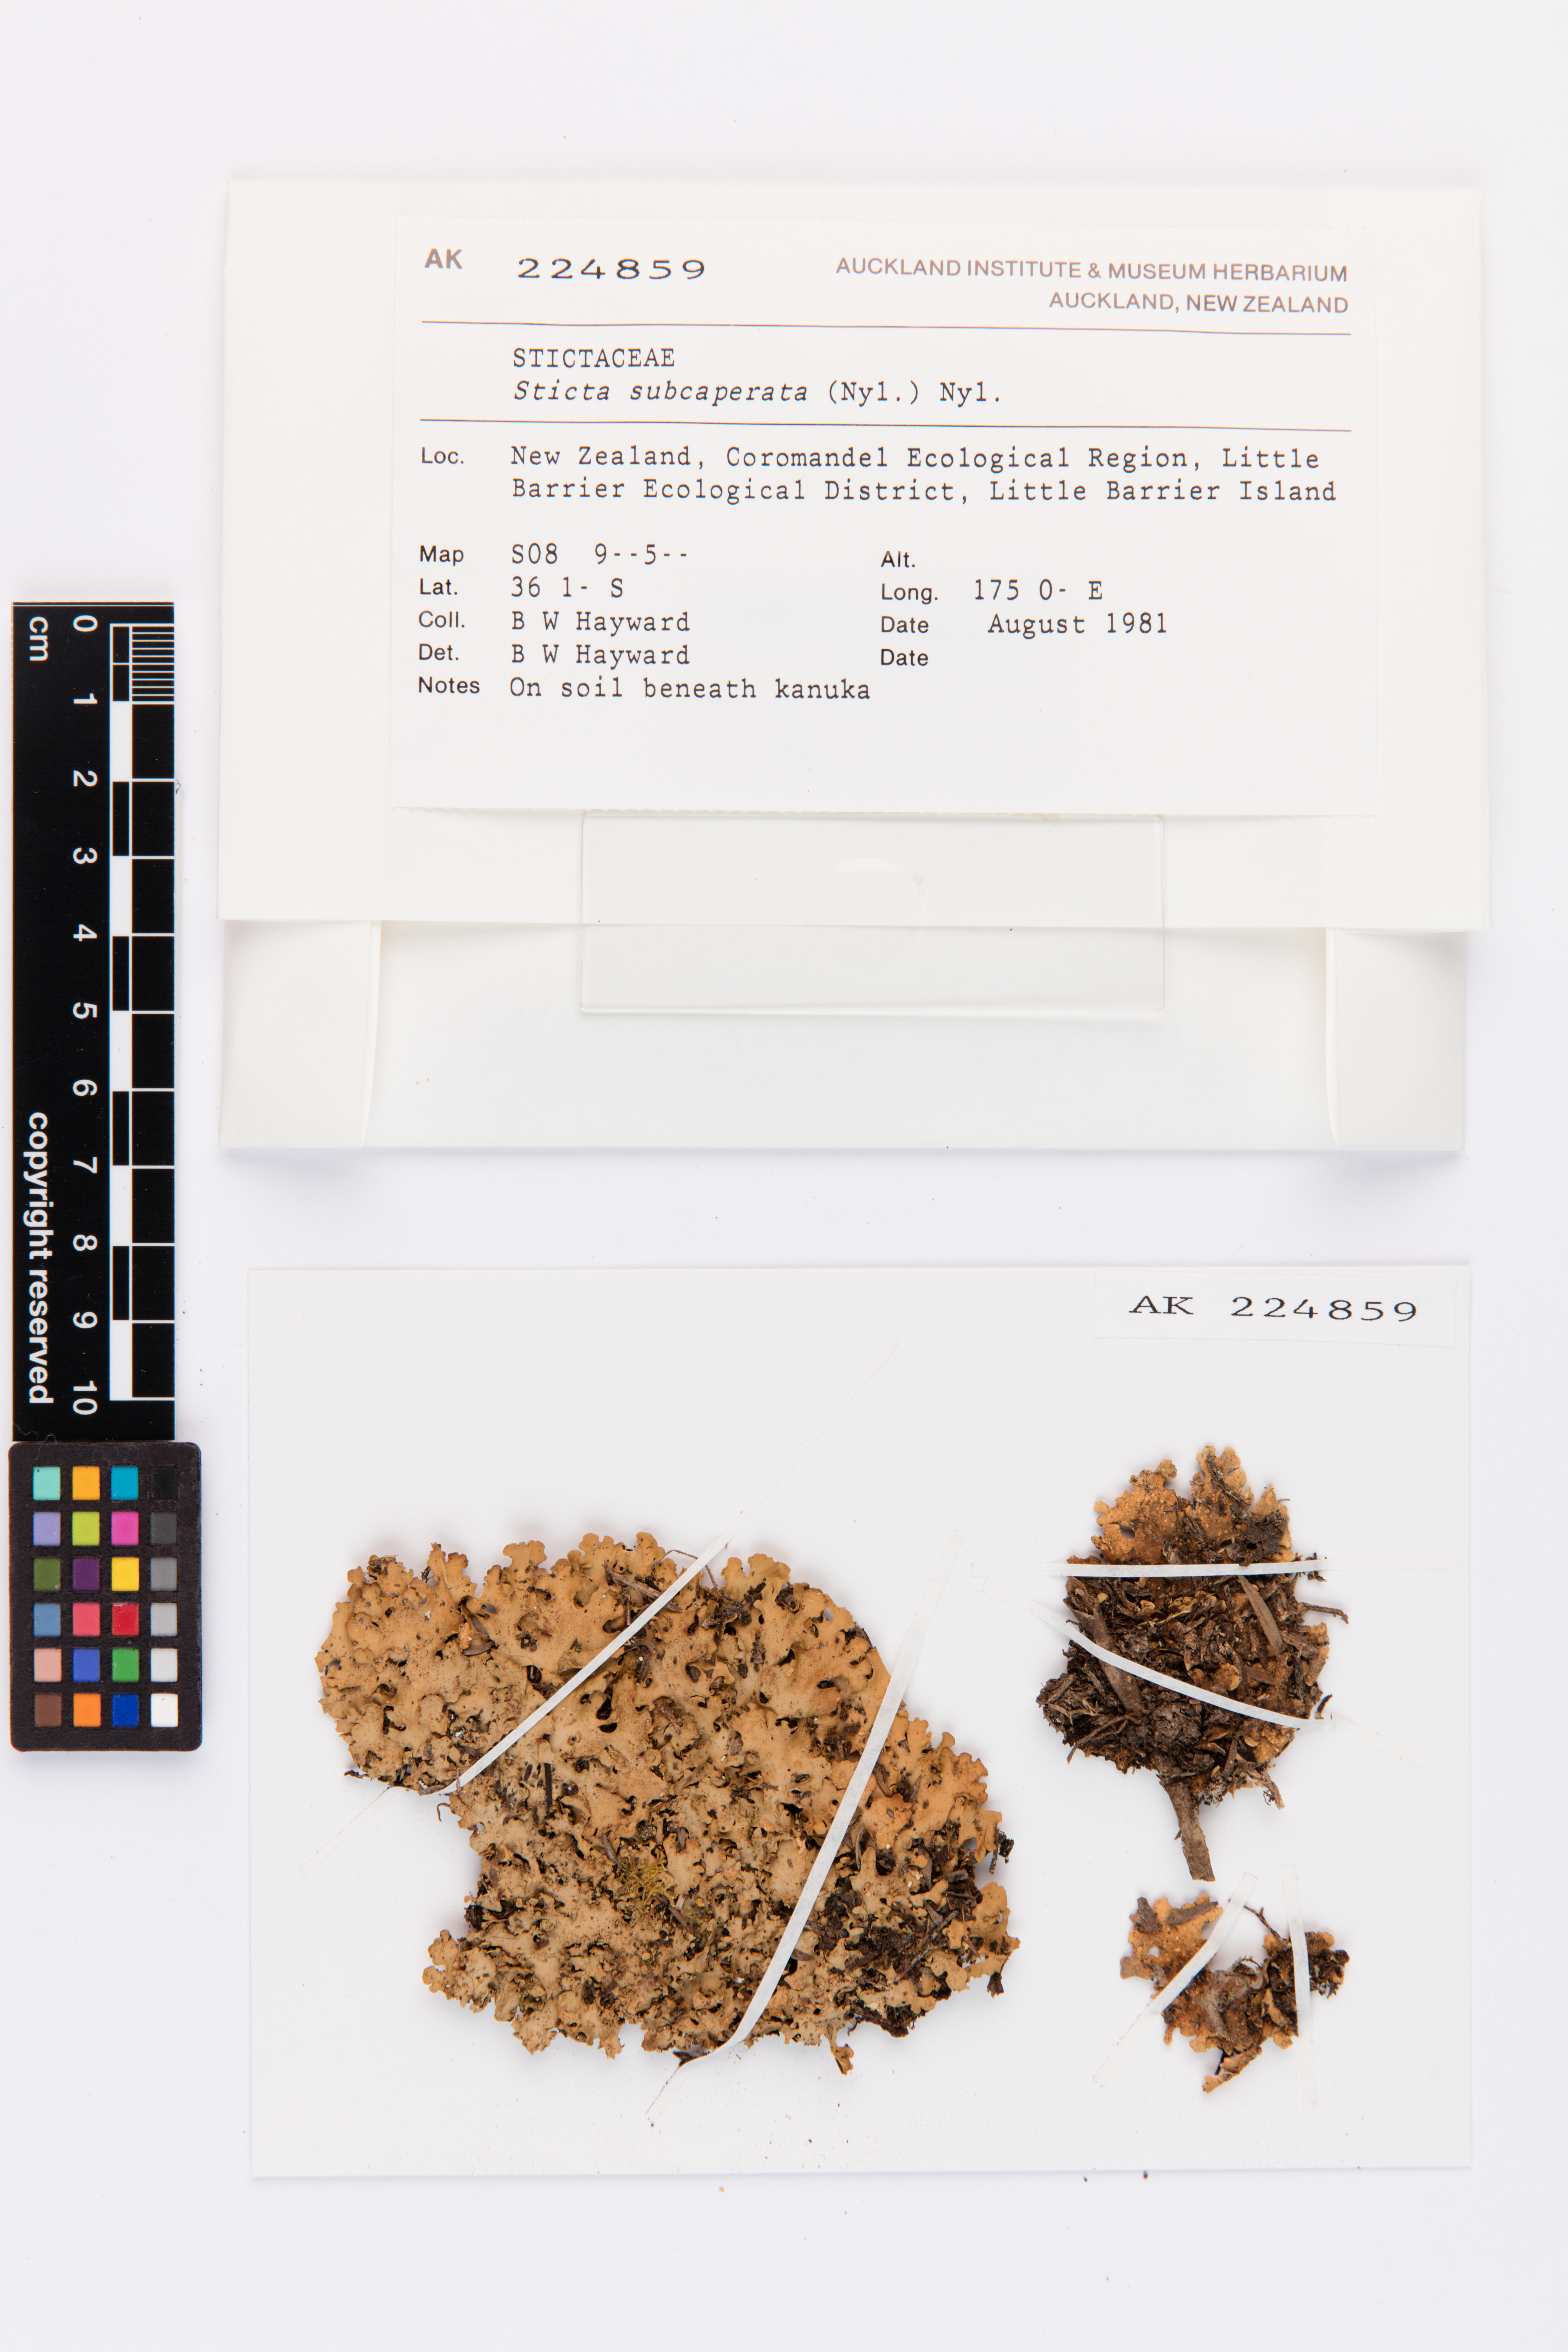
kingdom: Fungi
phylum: Ascomycota
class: Lecanoromycetes
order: Peltigerales
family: Lobariaceae
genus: Sticta
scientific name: Sticta subcaperata
